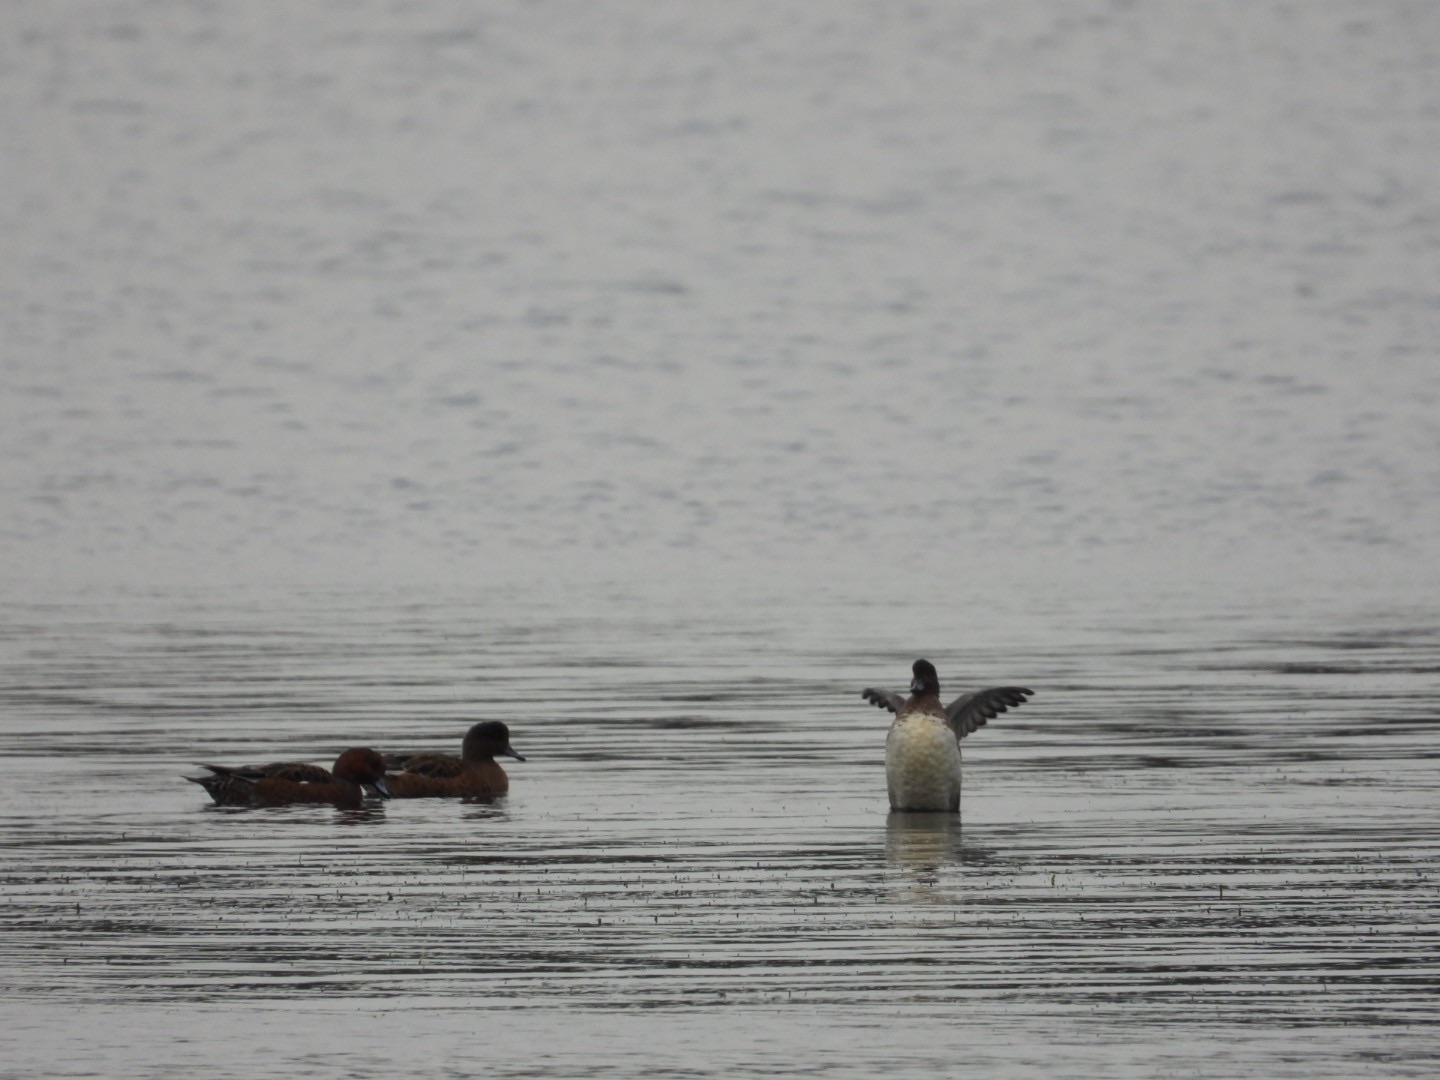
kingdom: Animalia
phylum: Chordata
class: Aves
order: Anseriformes
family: Anatidae
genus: Mareca
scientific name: Mareca penelope
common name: Pibeand
